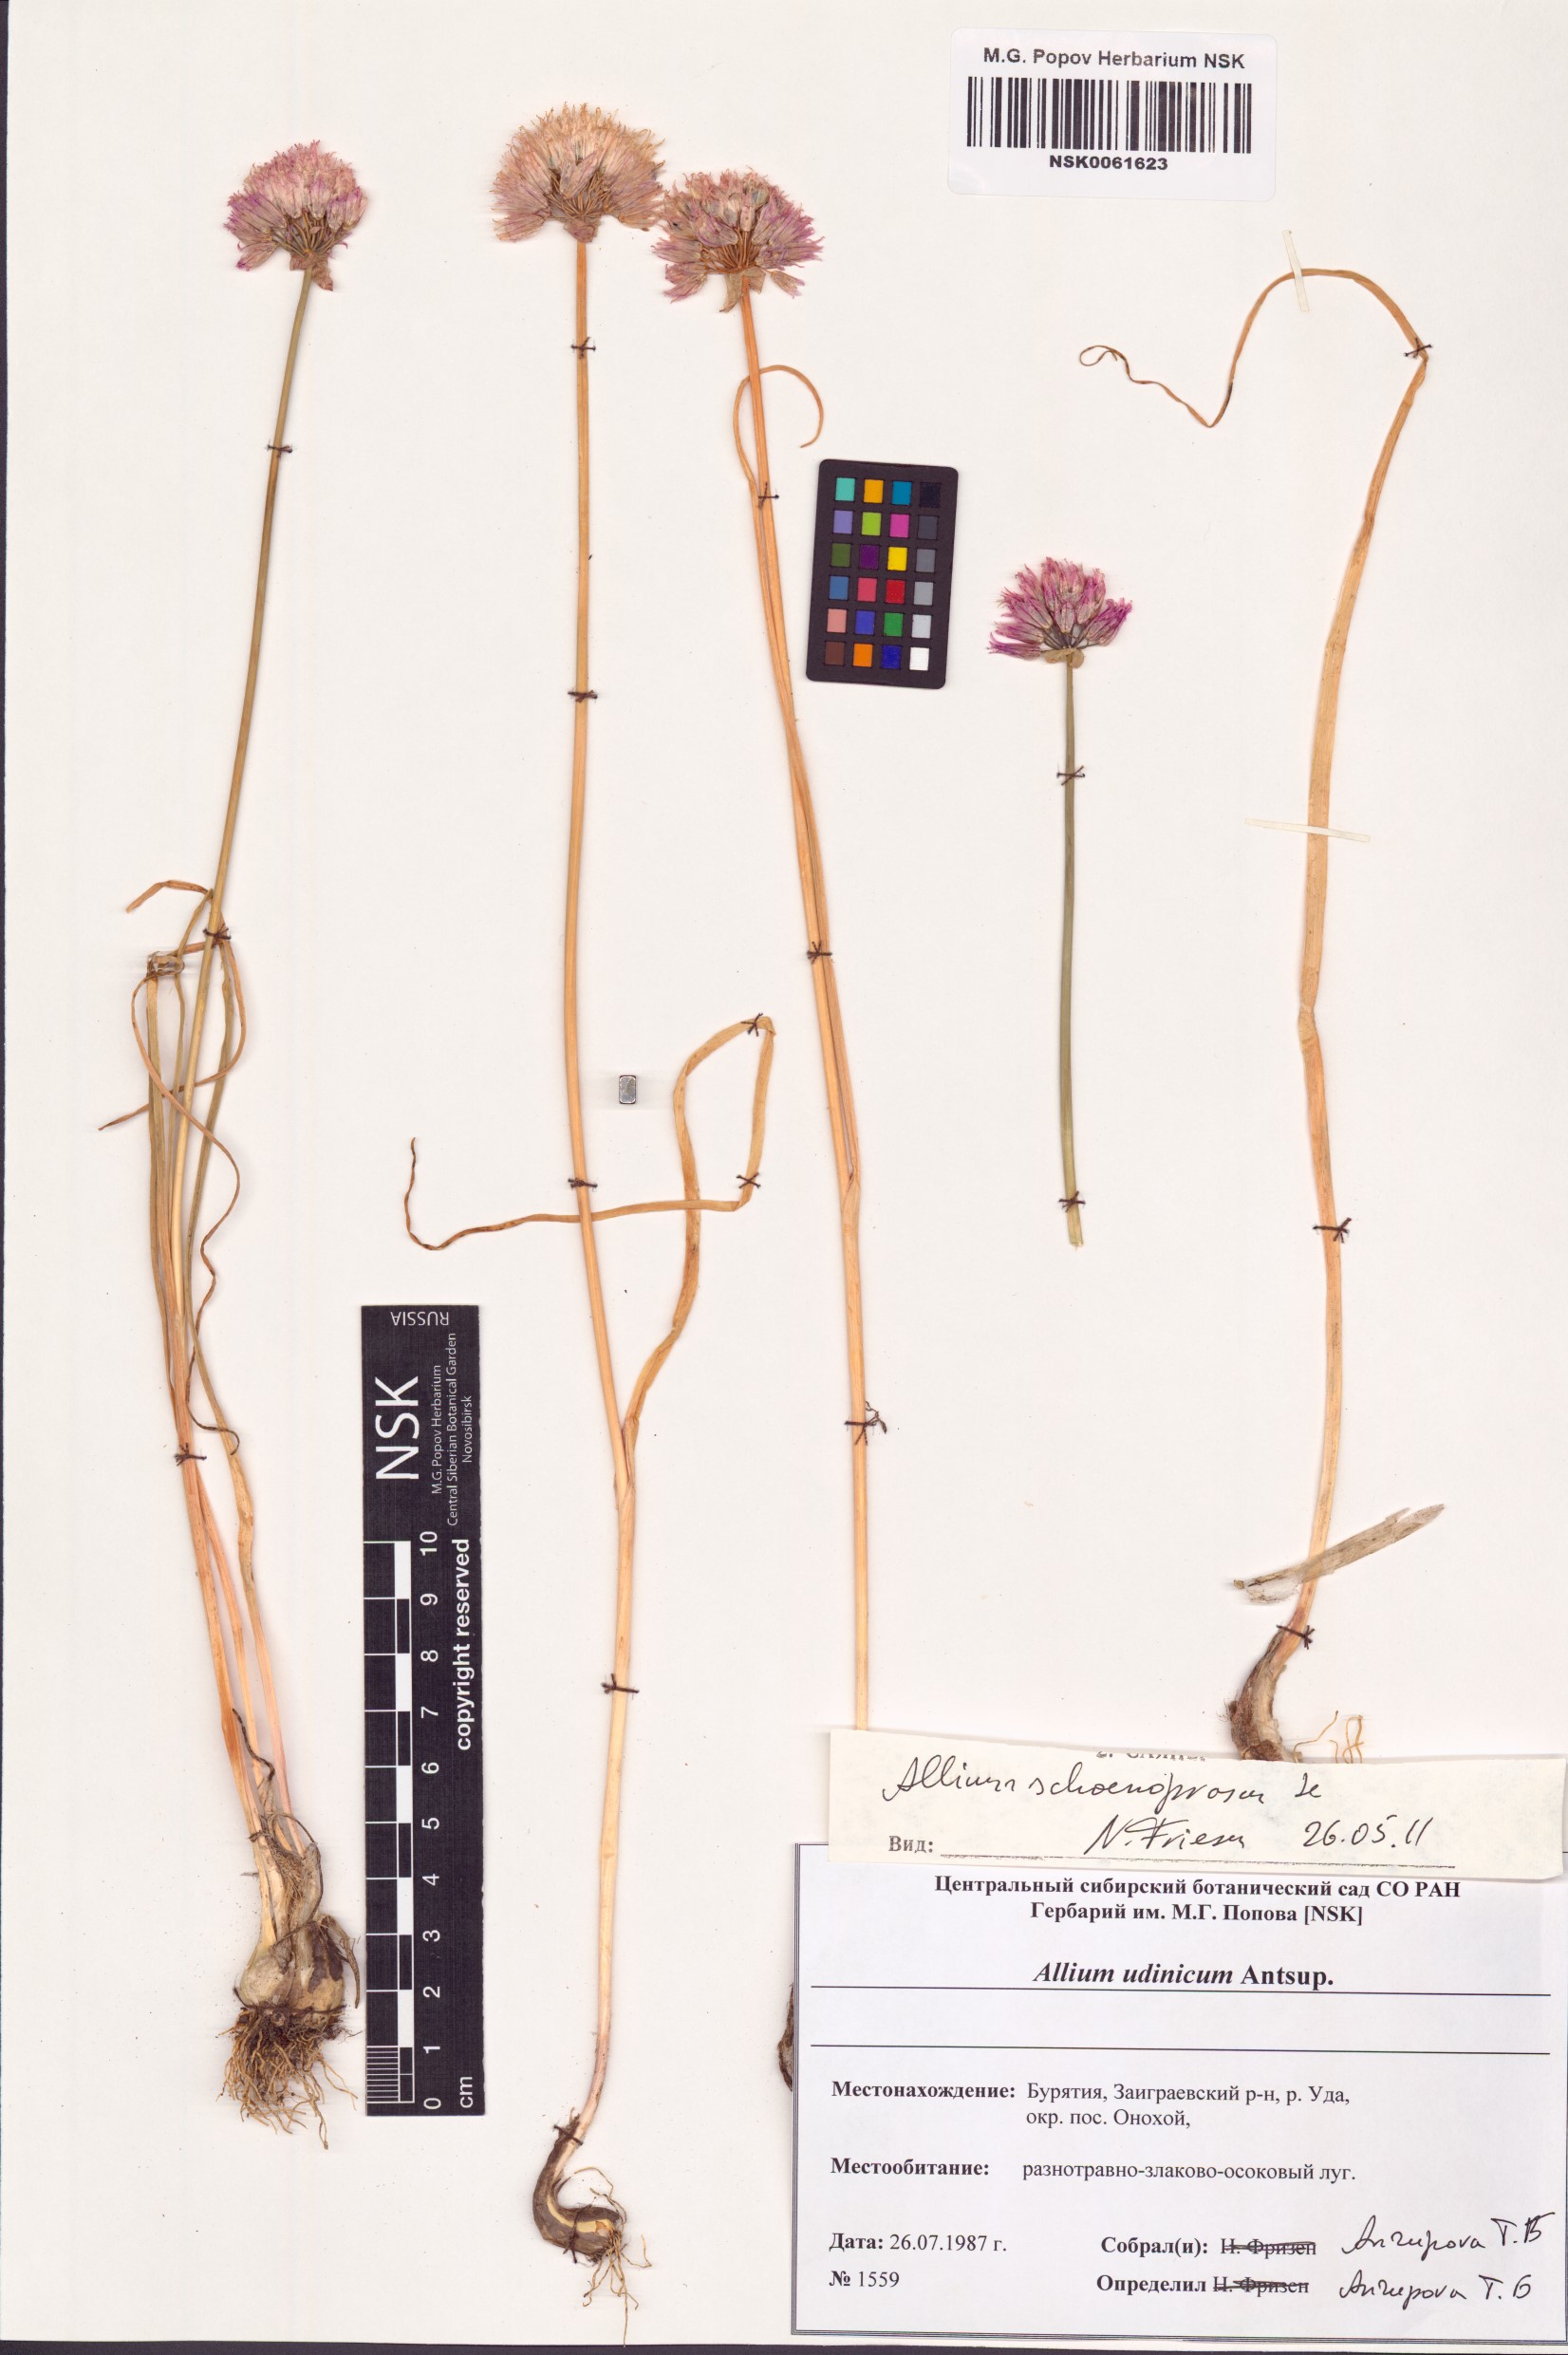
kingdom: Plantae
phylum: Tracheophyta
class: Liliopsida
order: Asparagales
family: Amaryllidaceae
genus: Allium
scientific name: Allium schoenoprasum
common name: Chives
